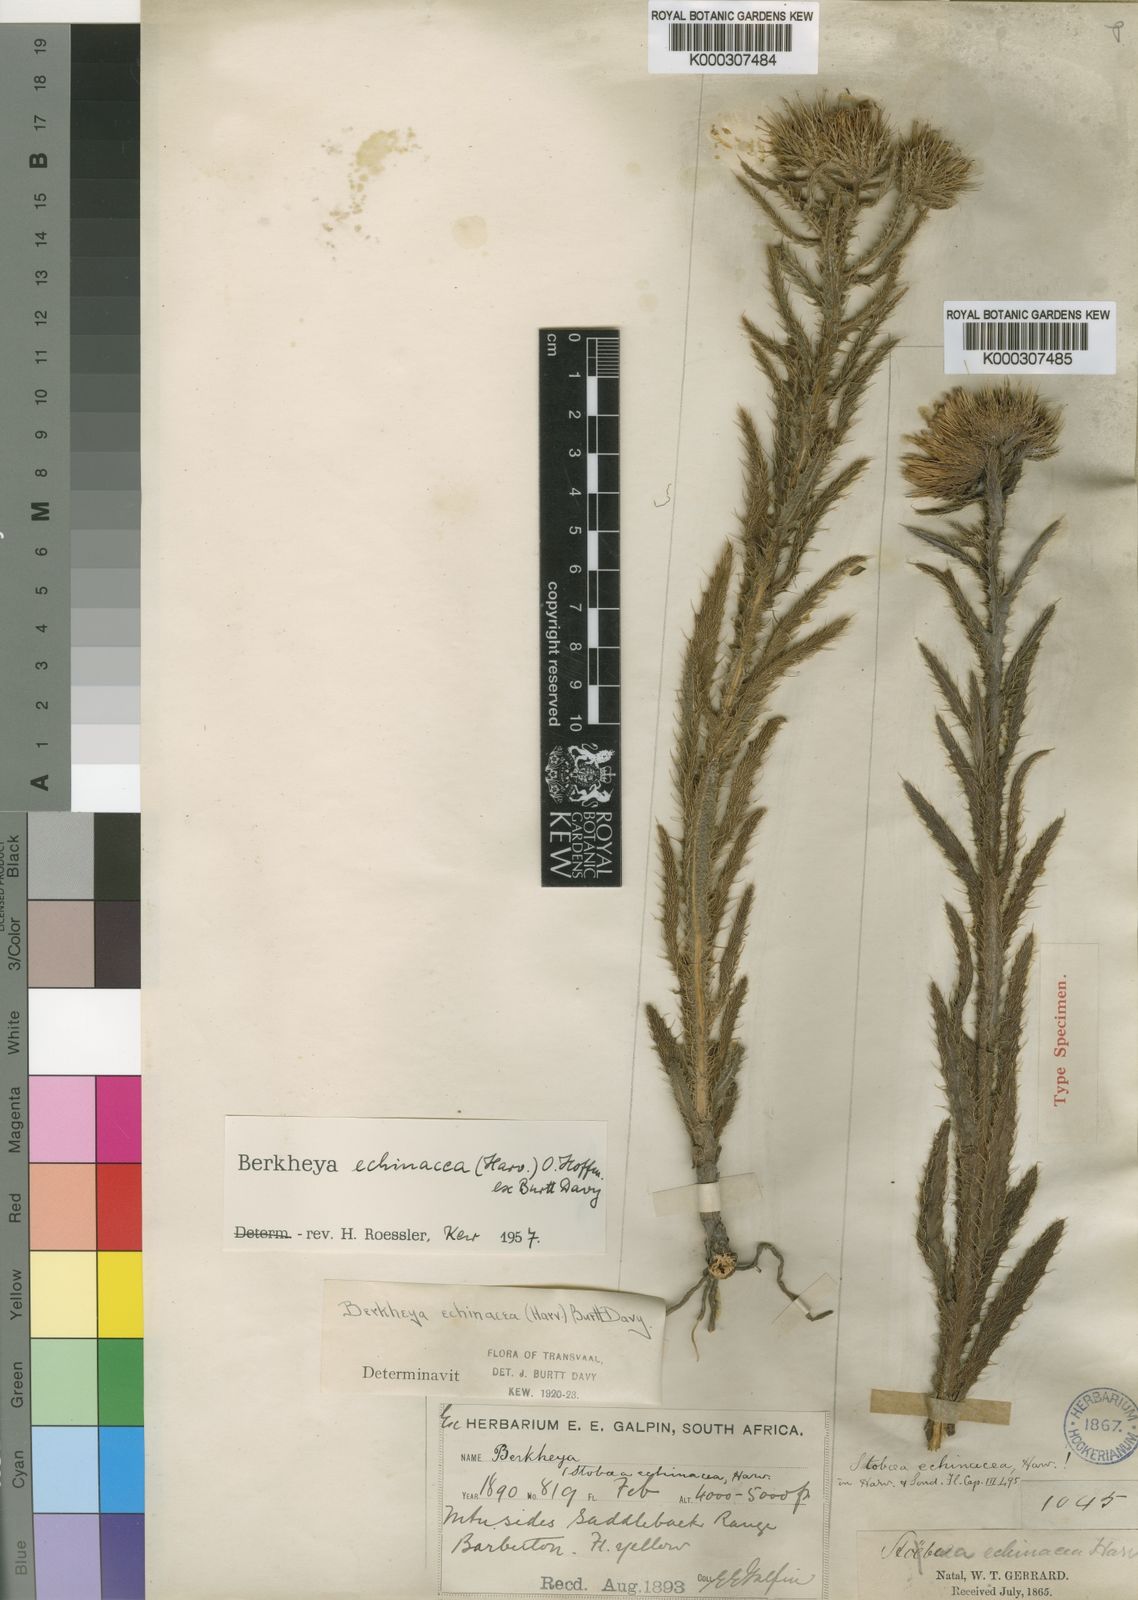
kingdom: Plantae
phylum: Tracheophyta
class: Magnoliopsida
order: Asterales
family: Asteraceae
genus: Berkheya
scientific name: Berkheya echinacea
